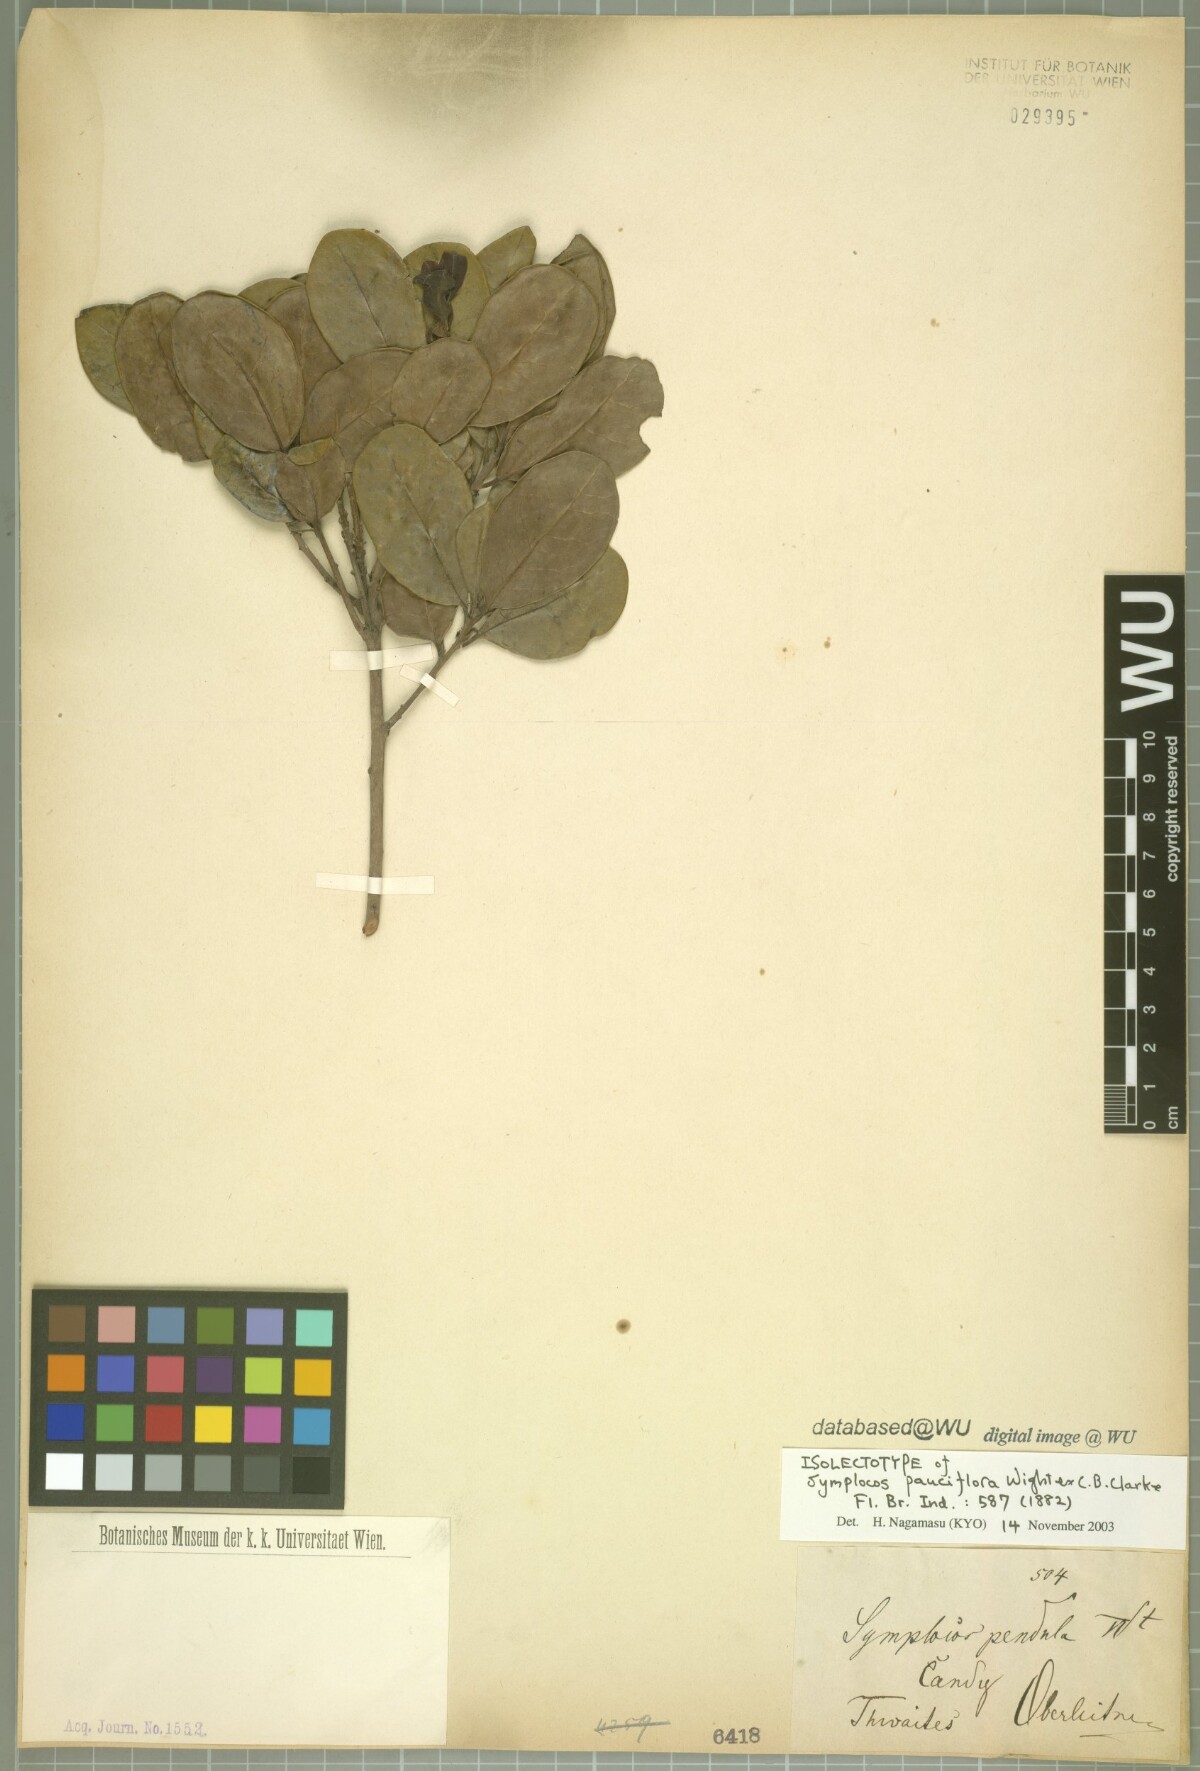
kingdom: Plantae
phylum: Tracheophyta
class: Magnoliopsida
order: Ericales
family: Symplocaceae
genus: Symplocos
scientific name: Symplocos pendula
